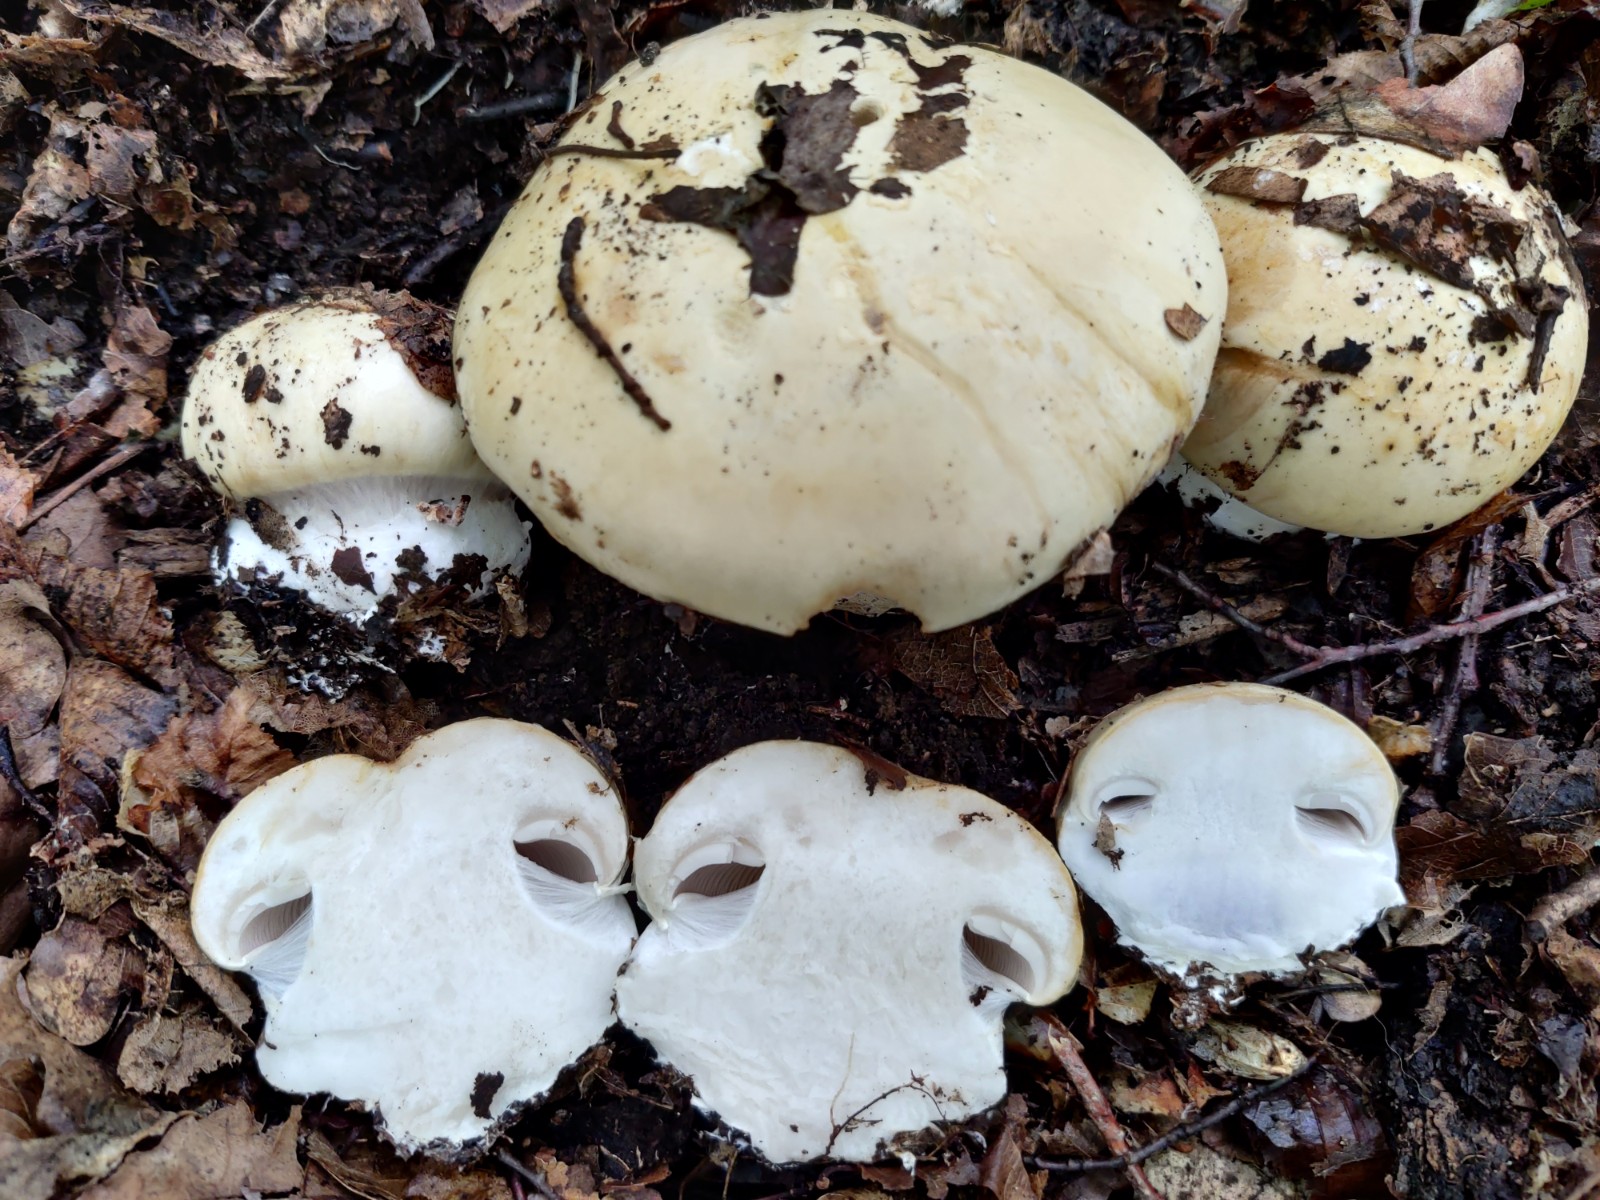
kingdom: Fungi
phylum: Basidiomycota
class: Agaricomycetes
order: Agaricales
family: Cortinariaceae
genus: Cortinarius
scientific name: Cortinarius caroviolaceus
